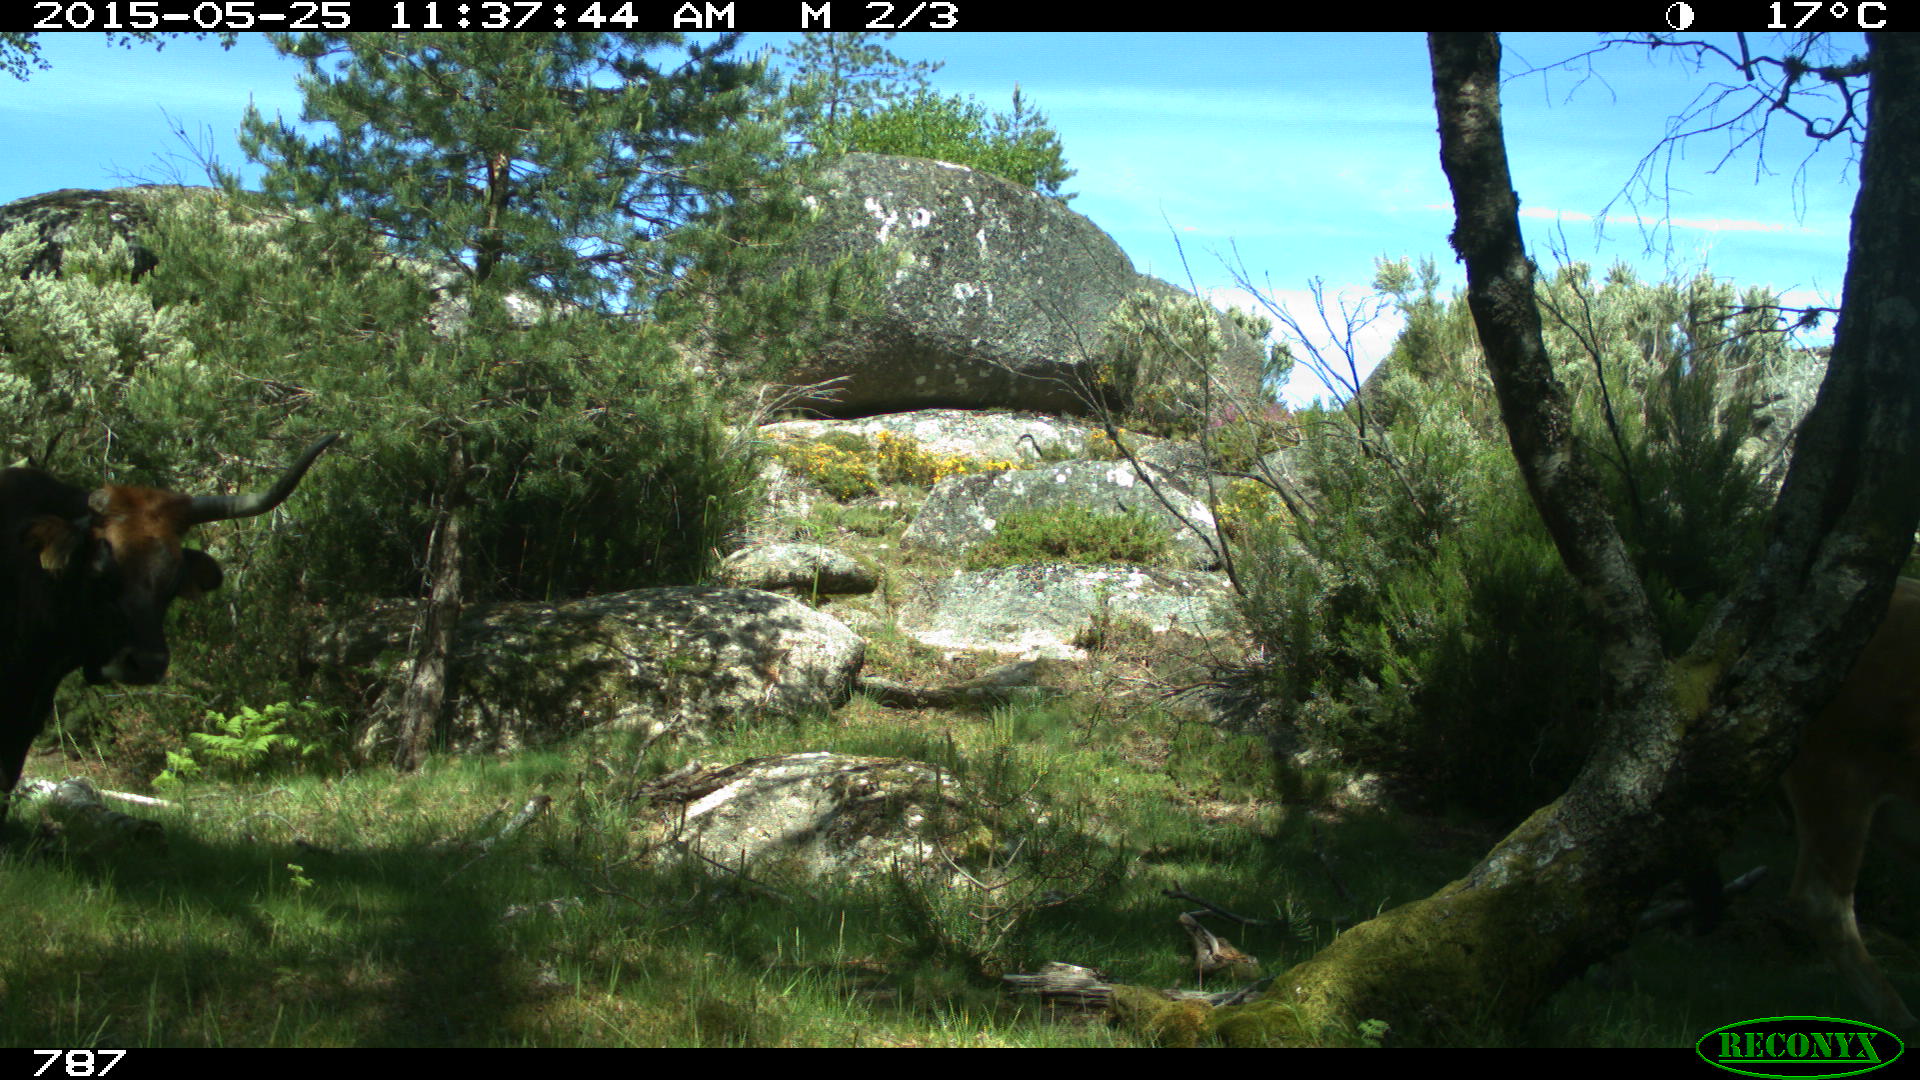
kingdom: Animalia
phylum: Chordata
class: Mammalia
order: Artiodactyla
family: Bovidae
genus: Bos
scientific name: Bos taurus
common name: Domesticated cattle
